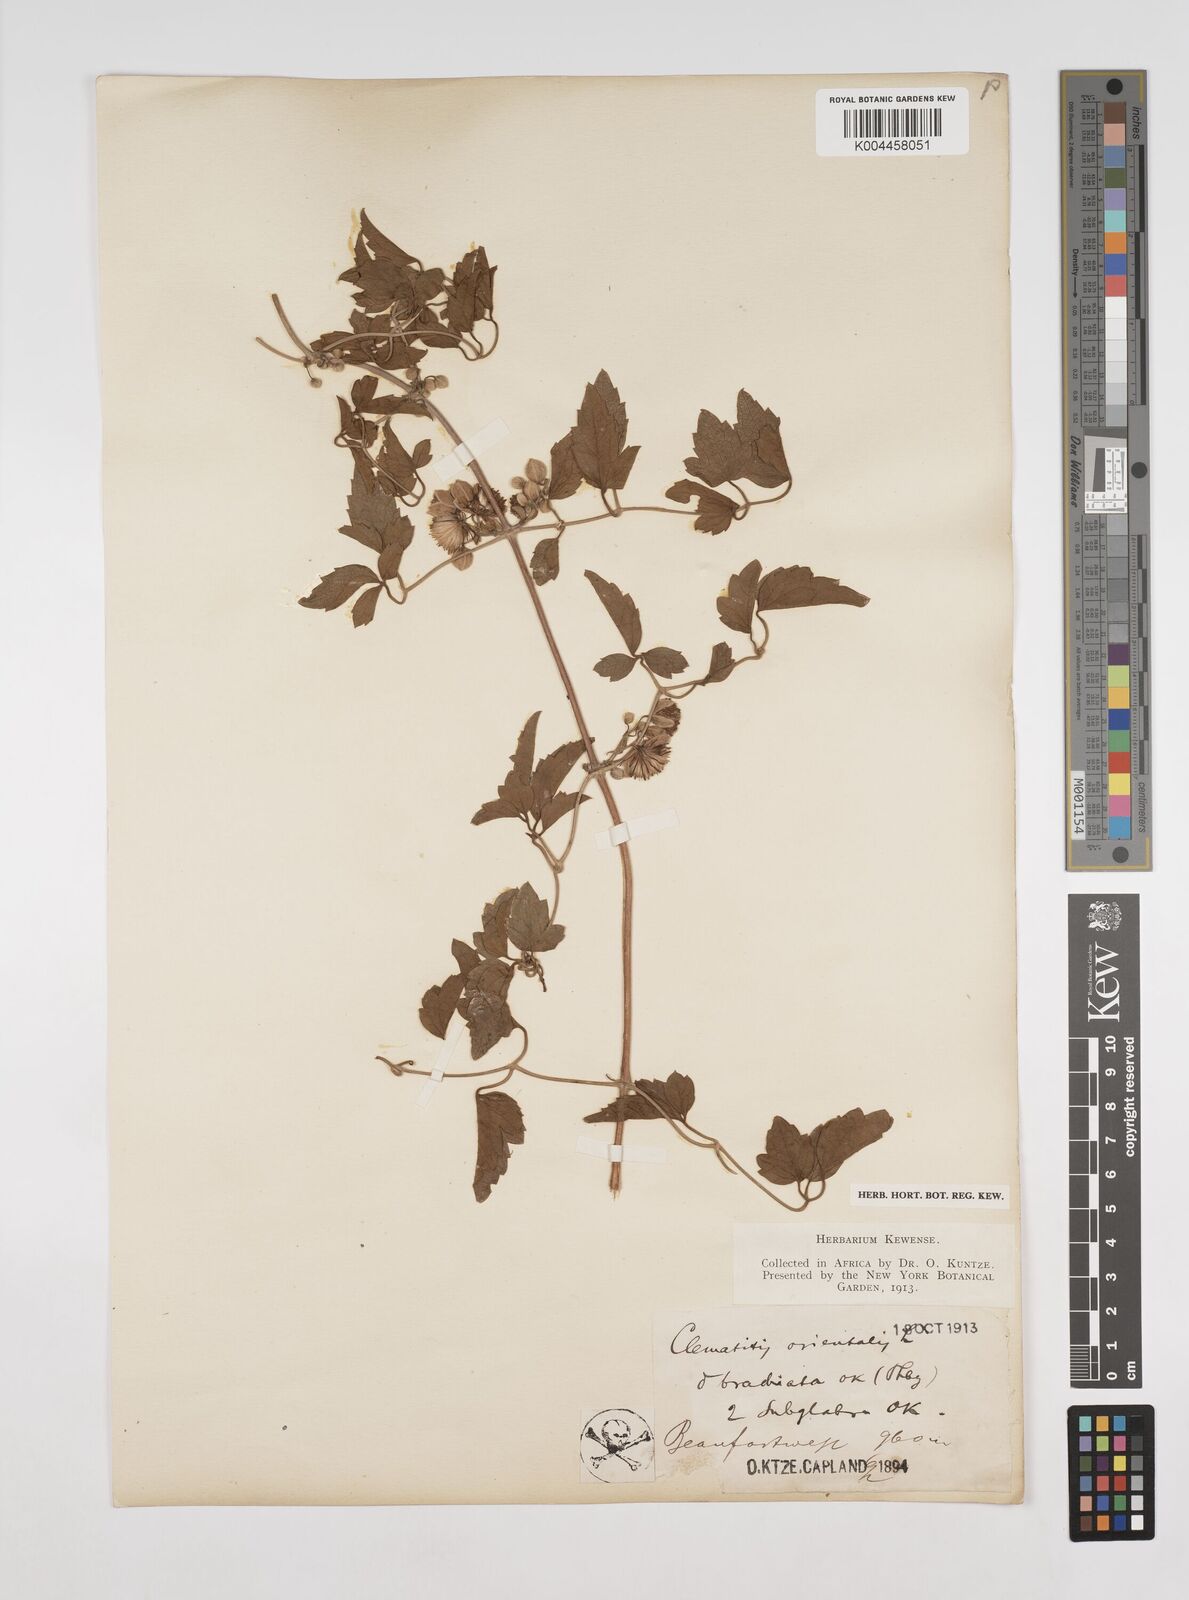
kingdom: Plantae
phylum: Tracheophyta
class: Magnoliopsida
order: Ranunculales
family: Ranunculaceae
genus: Clematis
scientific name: Clematis brachiata
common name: Traveler's-joy
